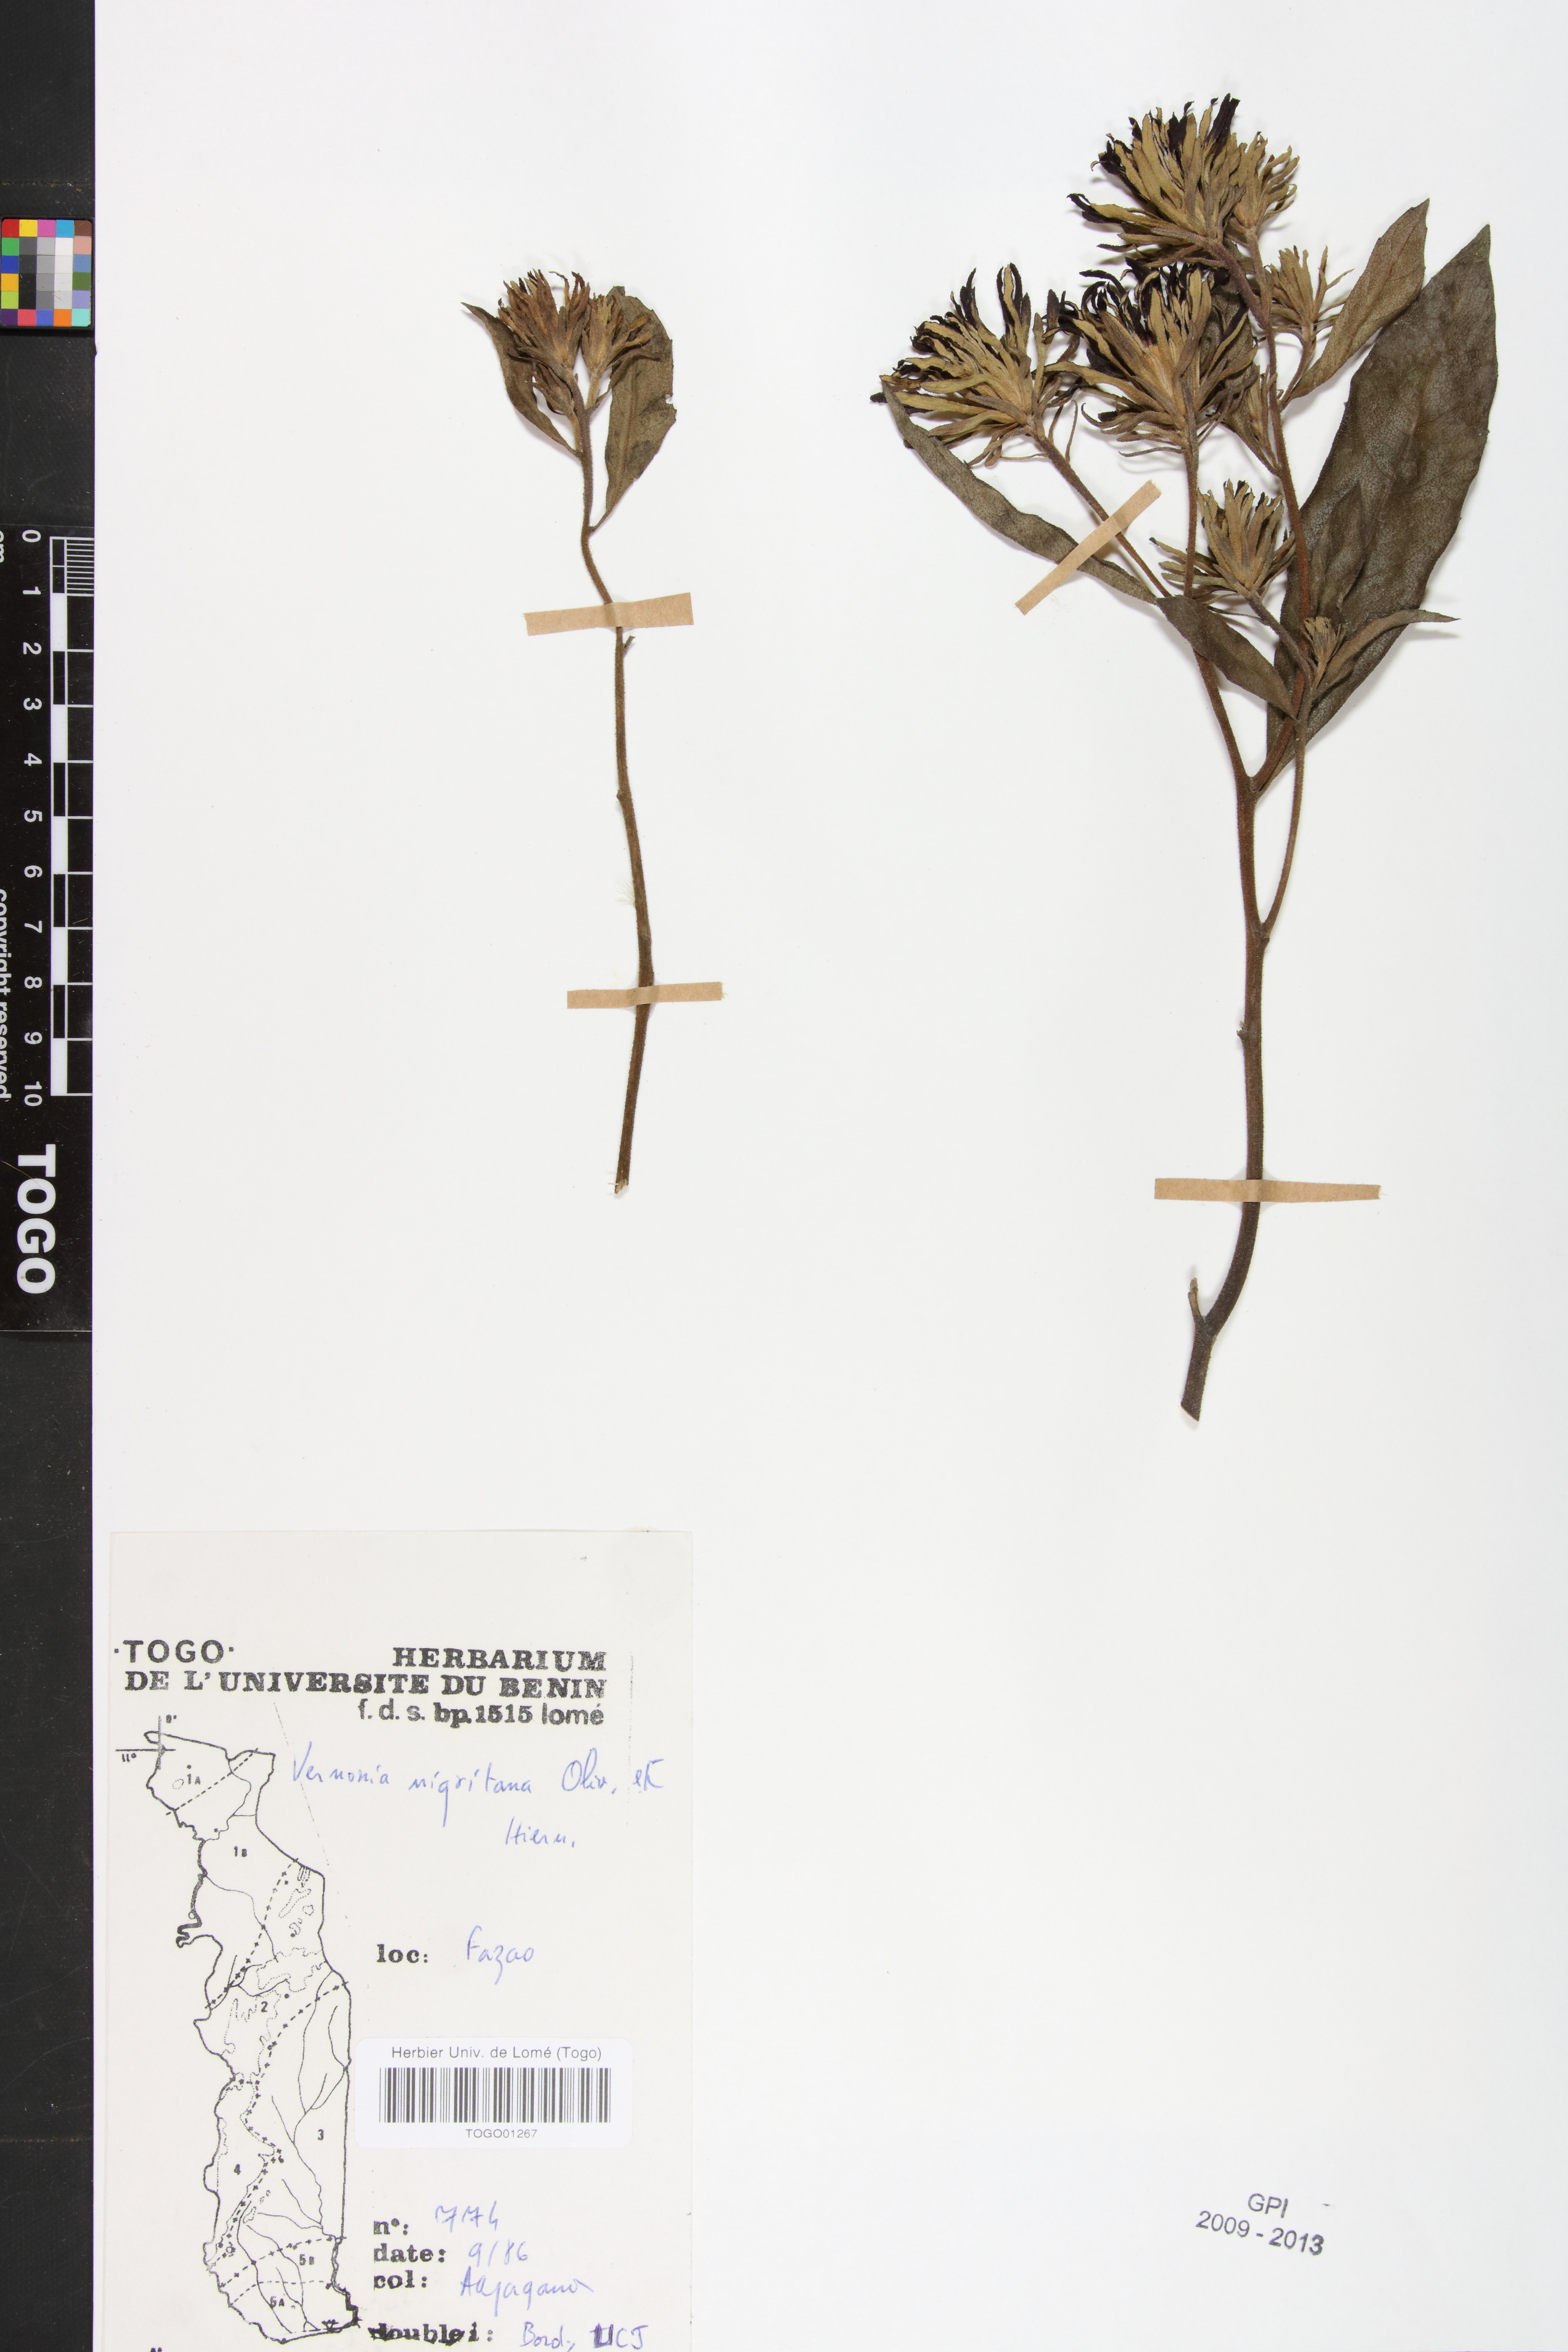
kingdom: Plantae
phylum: Tracheophyta
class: Magnoliopsida
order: Asterales
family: Asteraceae
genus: Linzia
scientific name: Linzia nigritiana
